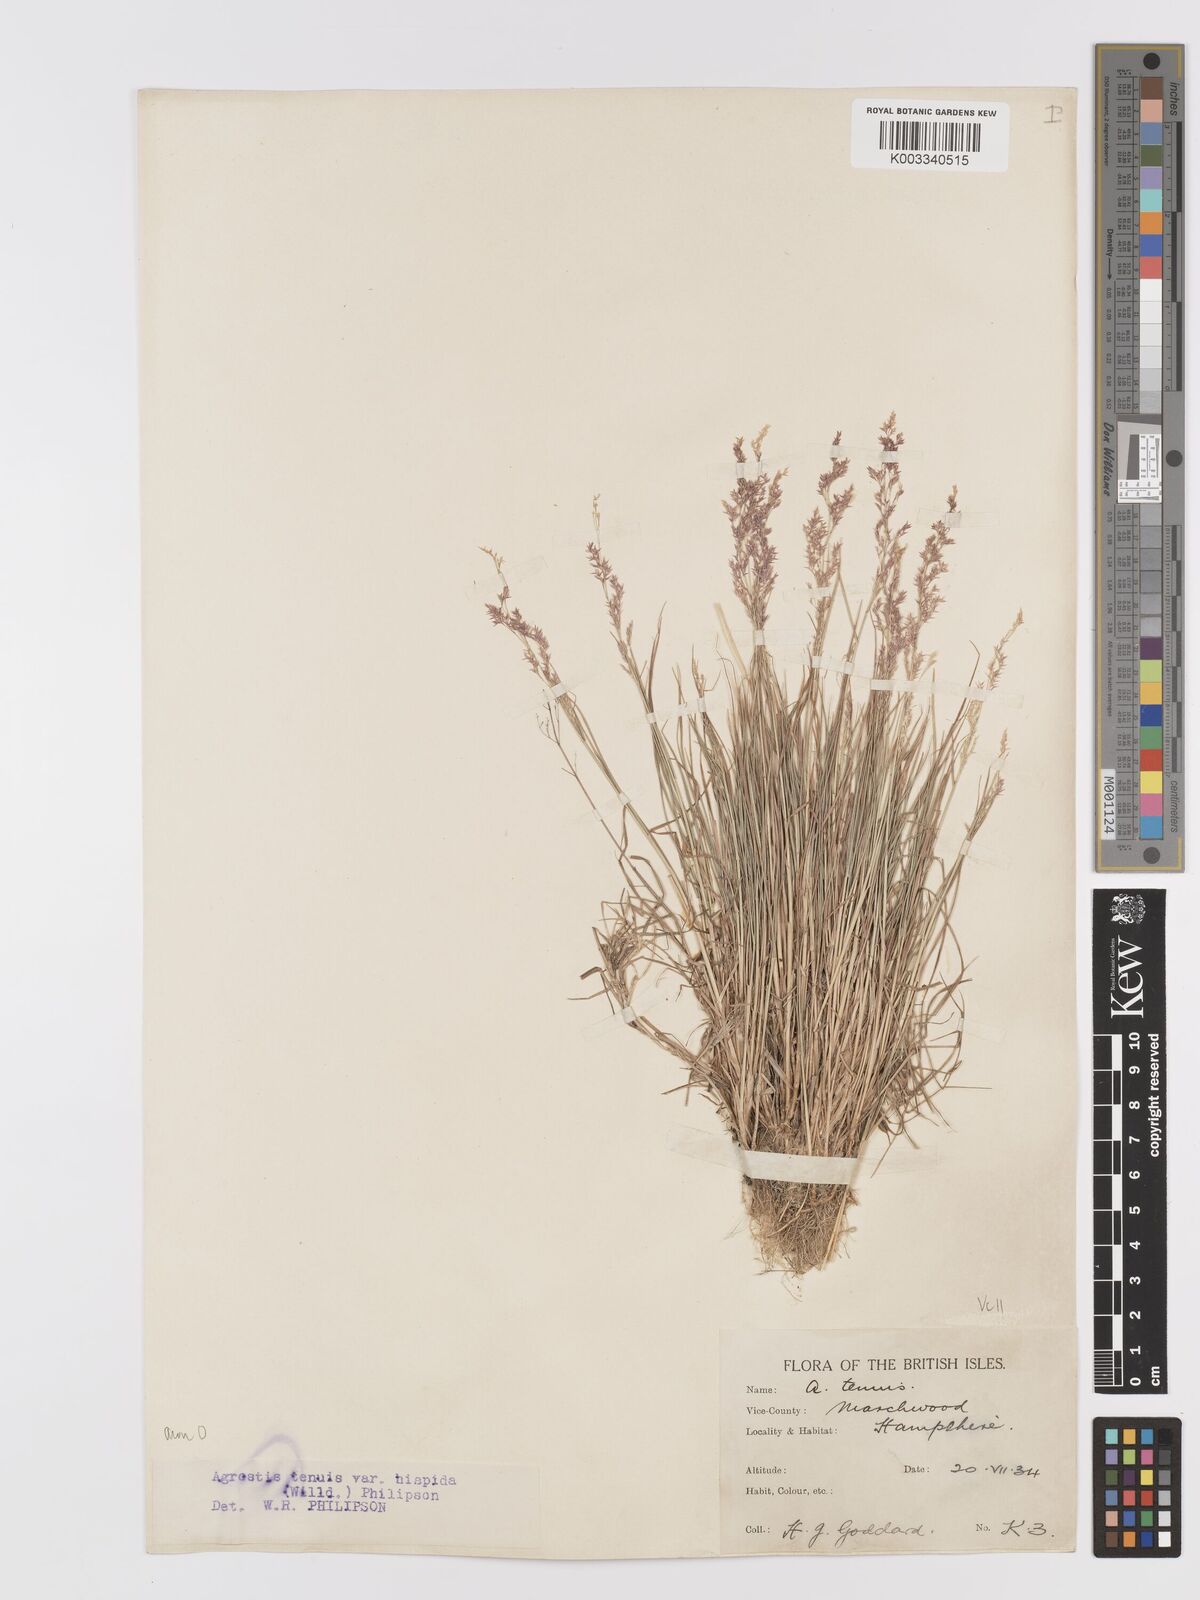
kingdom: Plantae
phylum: Tracheophyta
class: Liliopsida
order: Poales
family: Poaceae
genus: Agrostis
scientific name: Agrostis capillaris
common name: Colonial bentgrass
